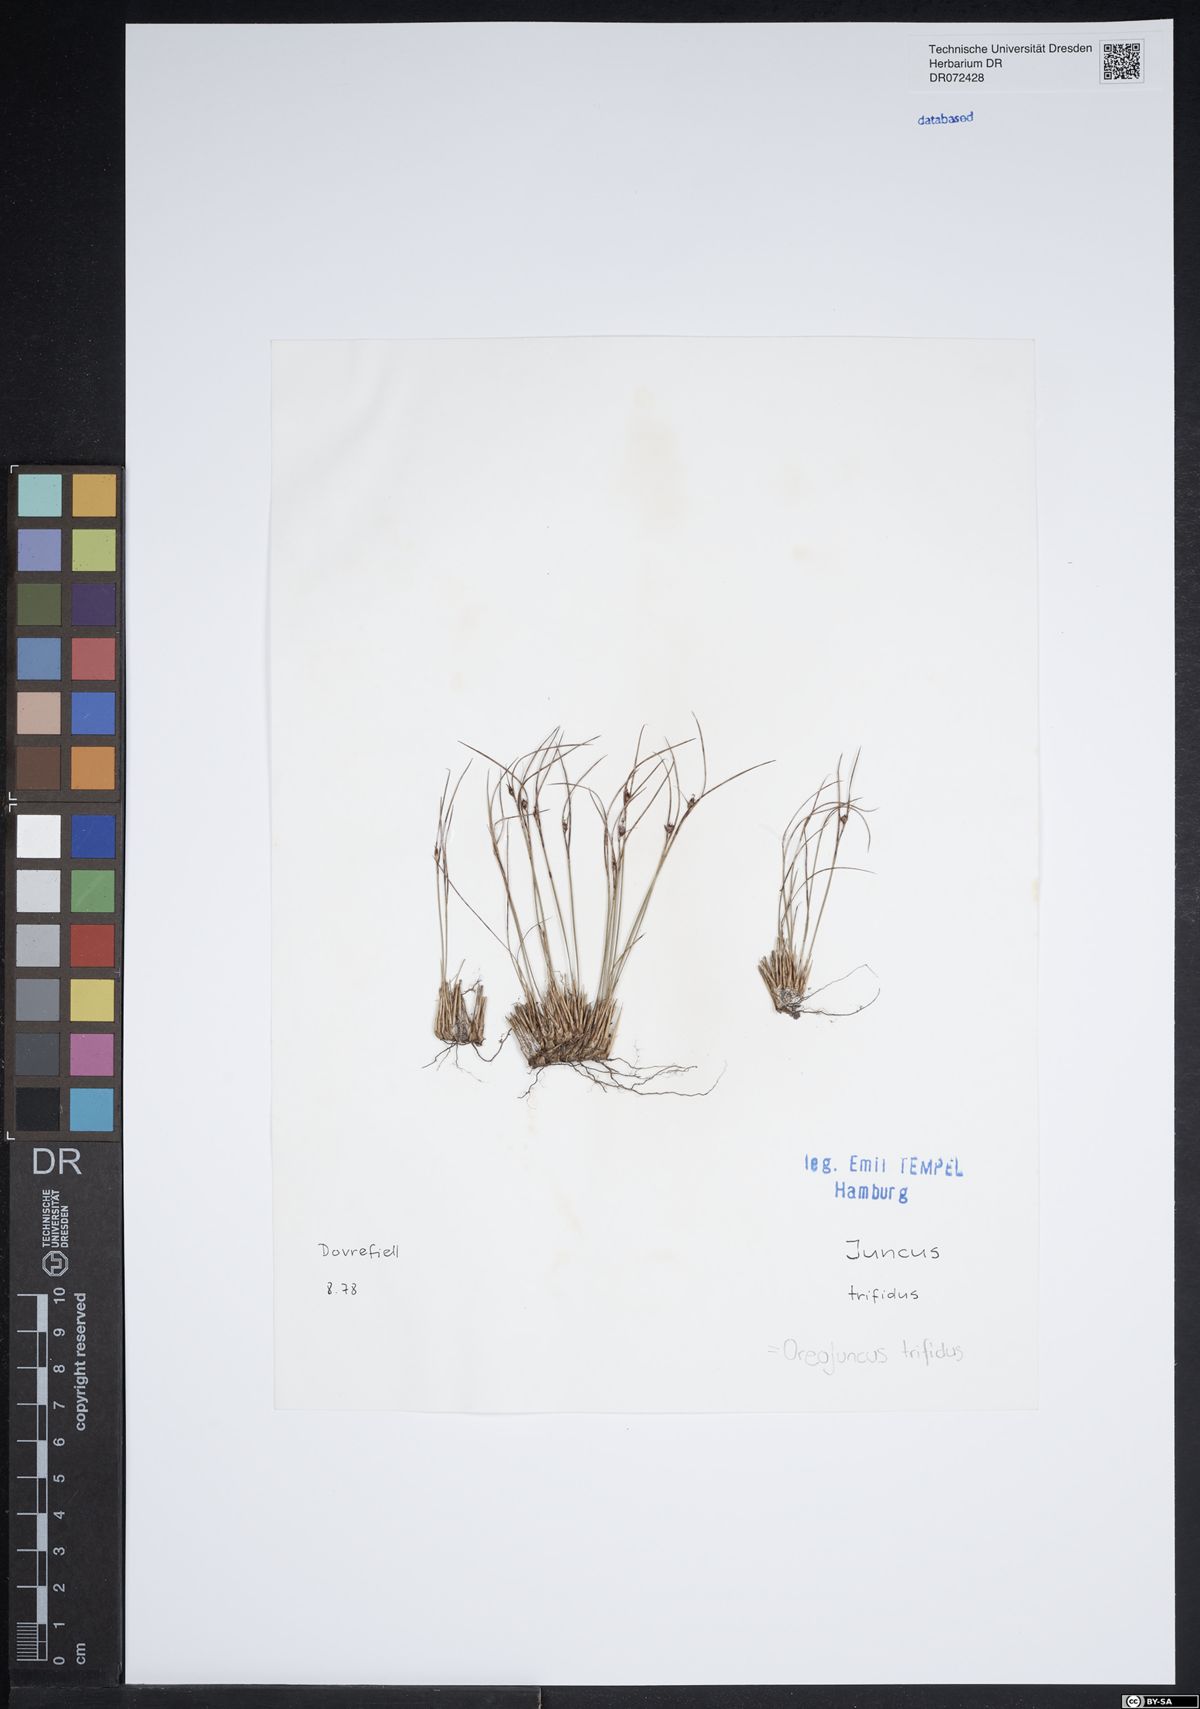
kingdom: Plantae
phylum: Tracheophyta
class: Liliopsida
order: Poales
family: Juncaceae
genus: Oreojuncus
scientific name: Oreojuncus trifidus
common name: Highland rush
